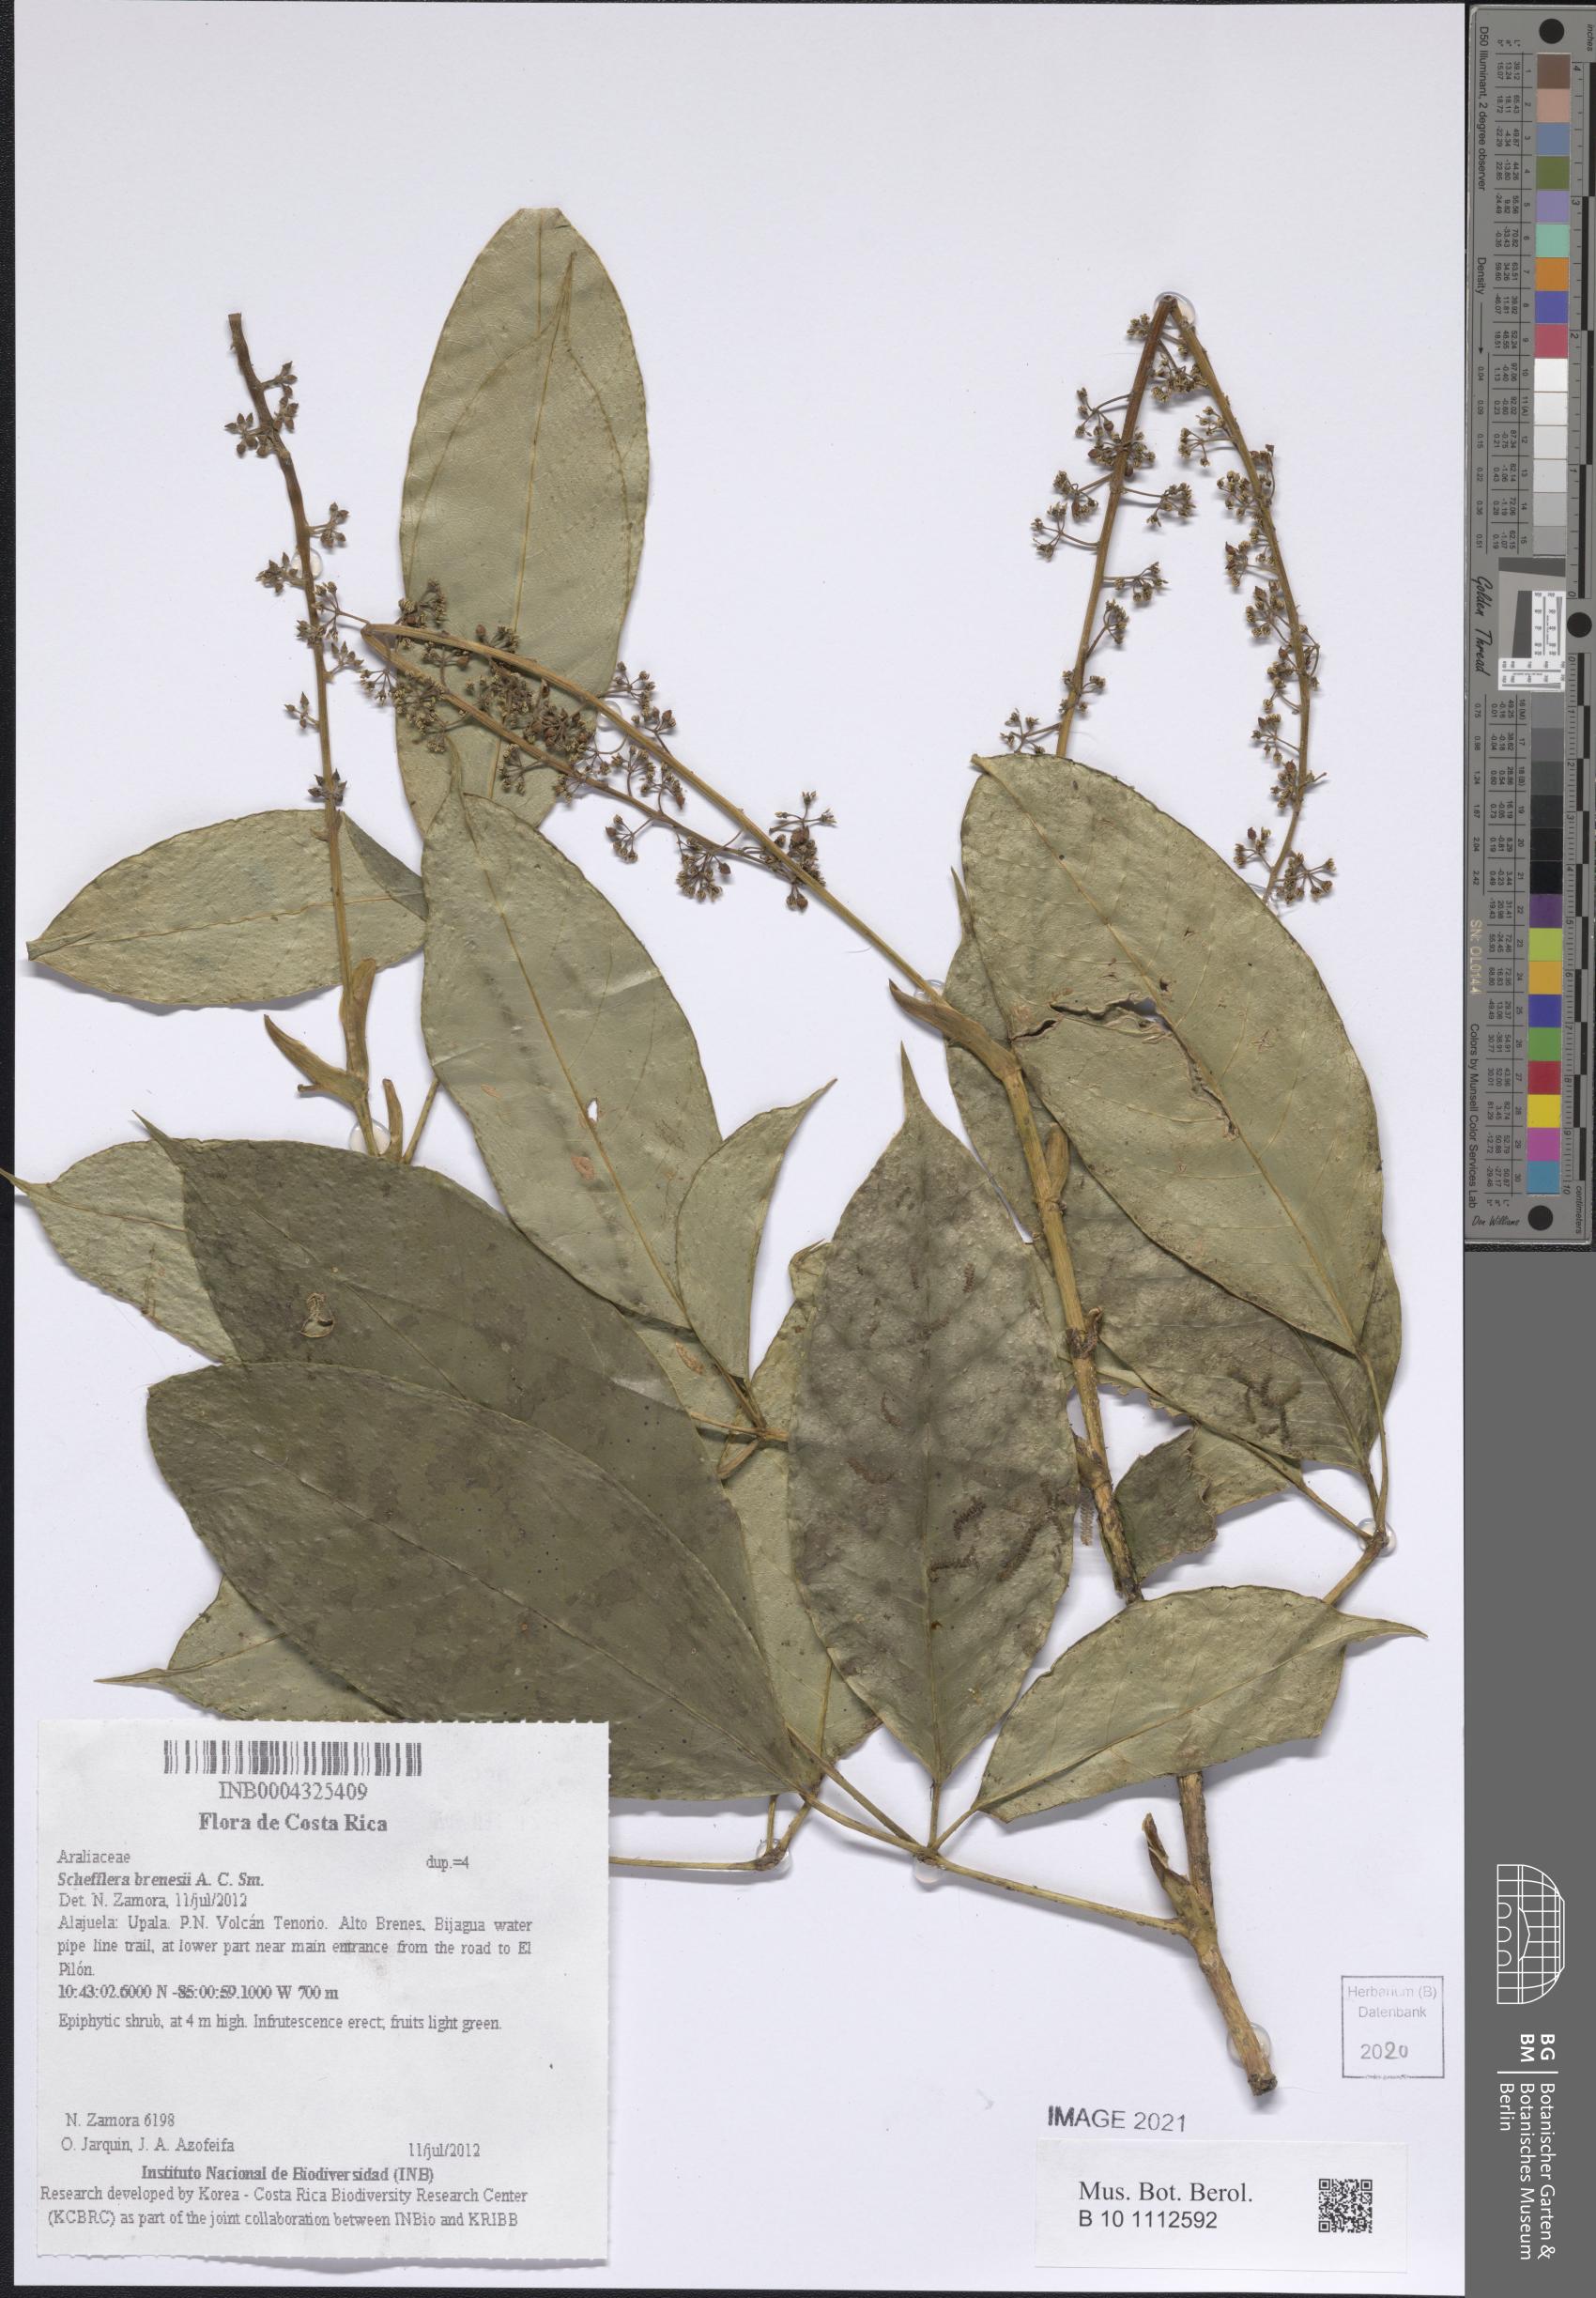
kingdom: Plantae
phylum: Tracheophyta
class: Magnoliopsida
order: Apiales
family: Araliaceae
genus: Sciodaphyllum
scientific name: Sciodaphyllum chartaceum
